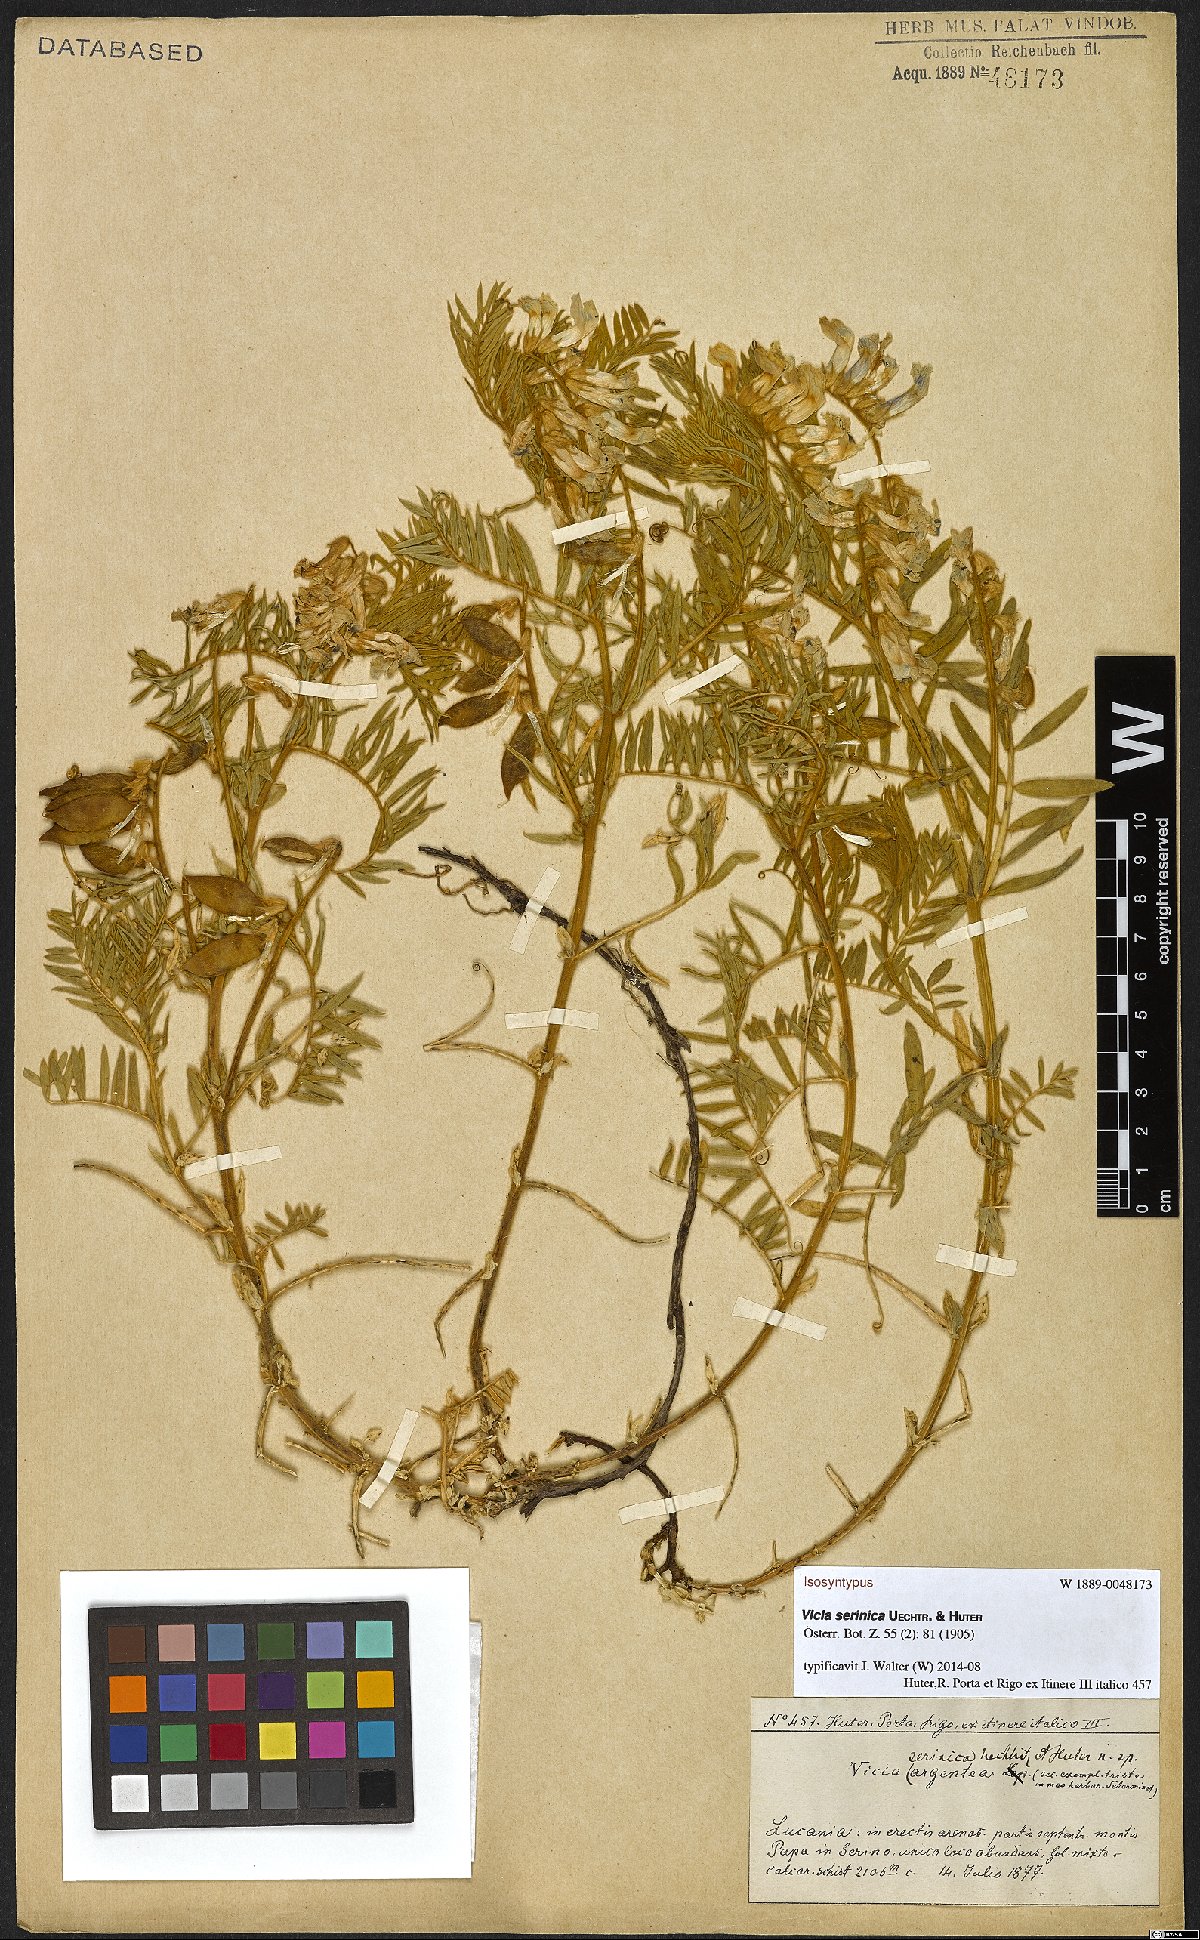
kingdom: Plantae
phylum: Tracheophyta
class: Magnoliopsida
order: Fabales
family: Fabaceae
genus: Vicia
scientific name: Vicia canescens
